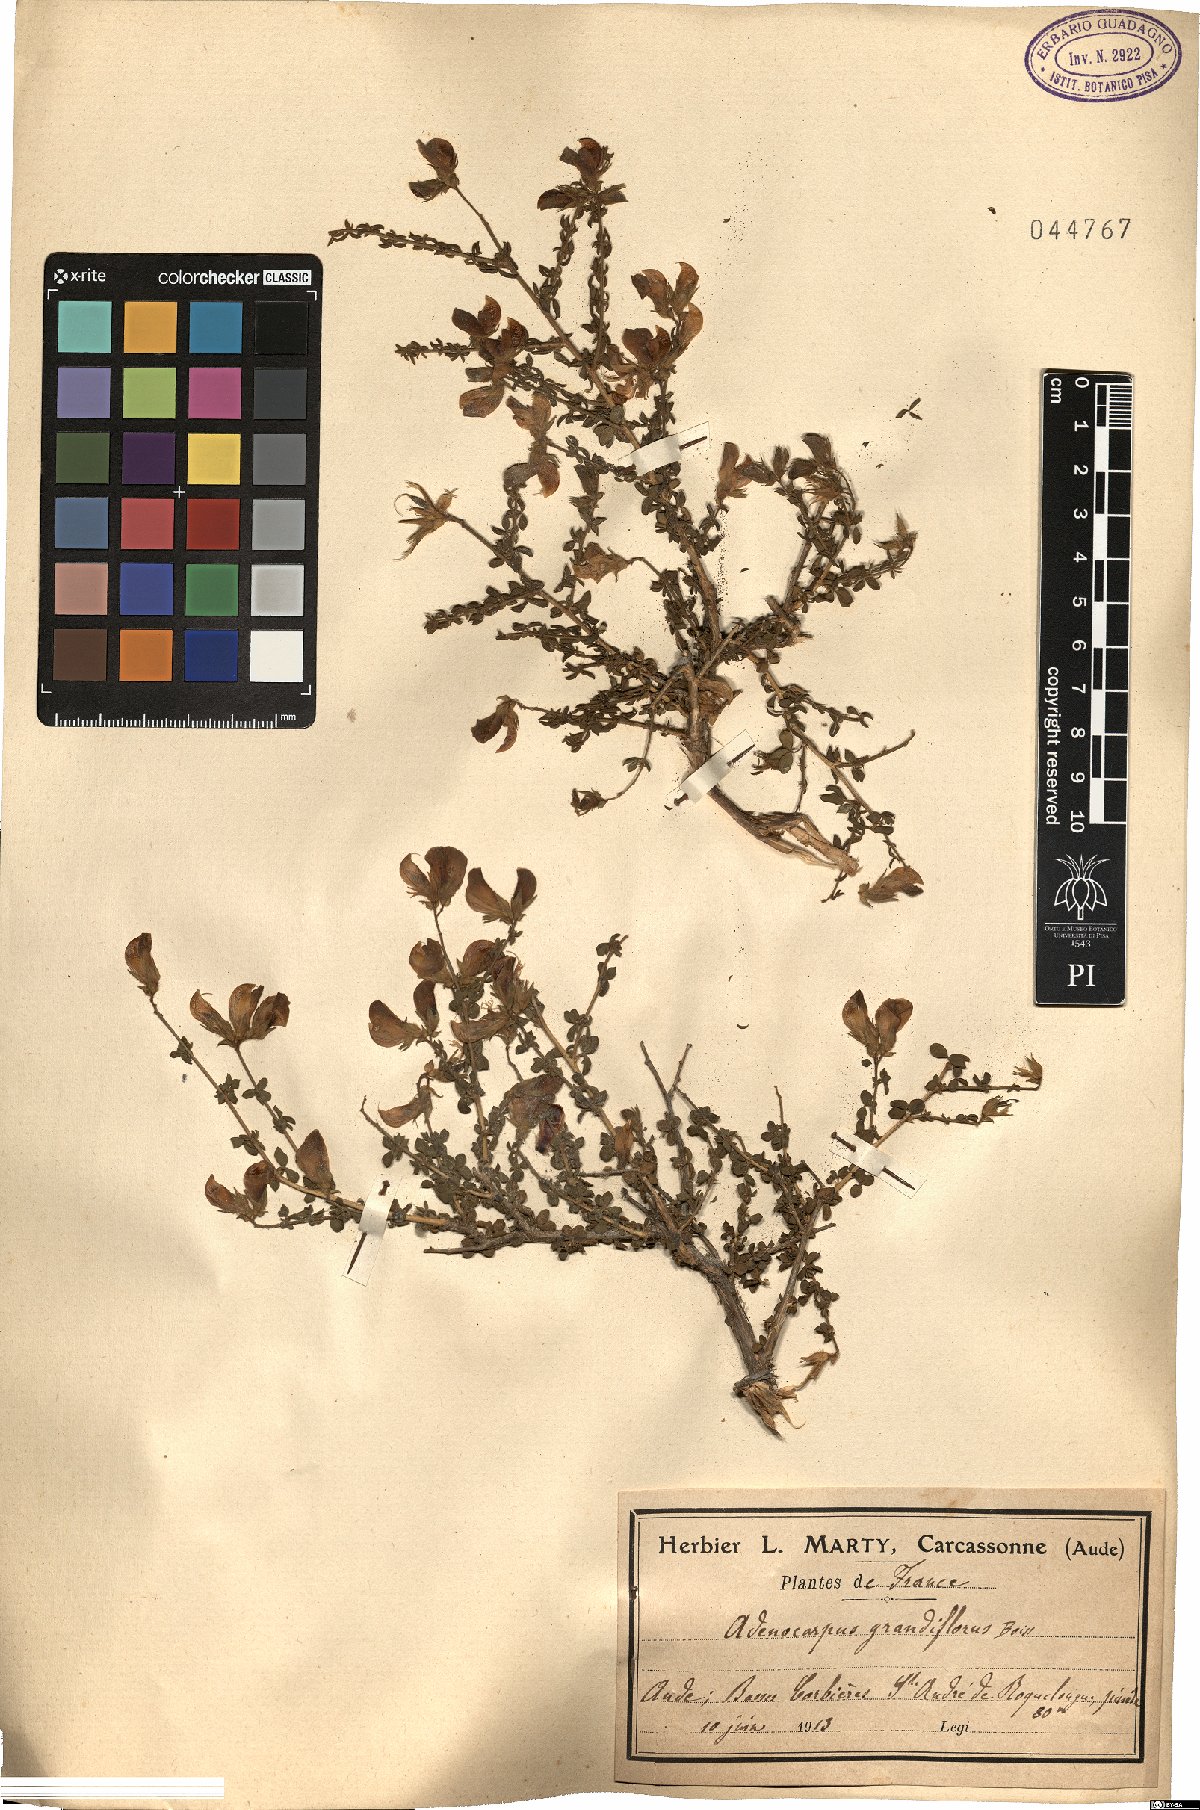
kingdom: Plantae
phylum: Tracheophyta
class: Magnoliopsida
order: Fabales
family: Fabaceae
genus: Adenocarpus
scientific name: Adenocarpus telonensis
